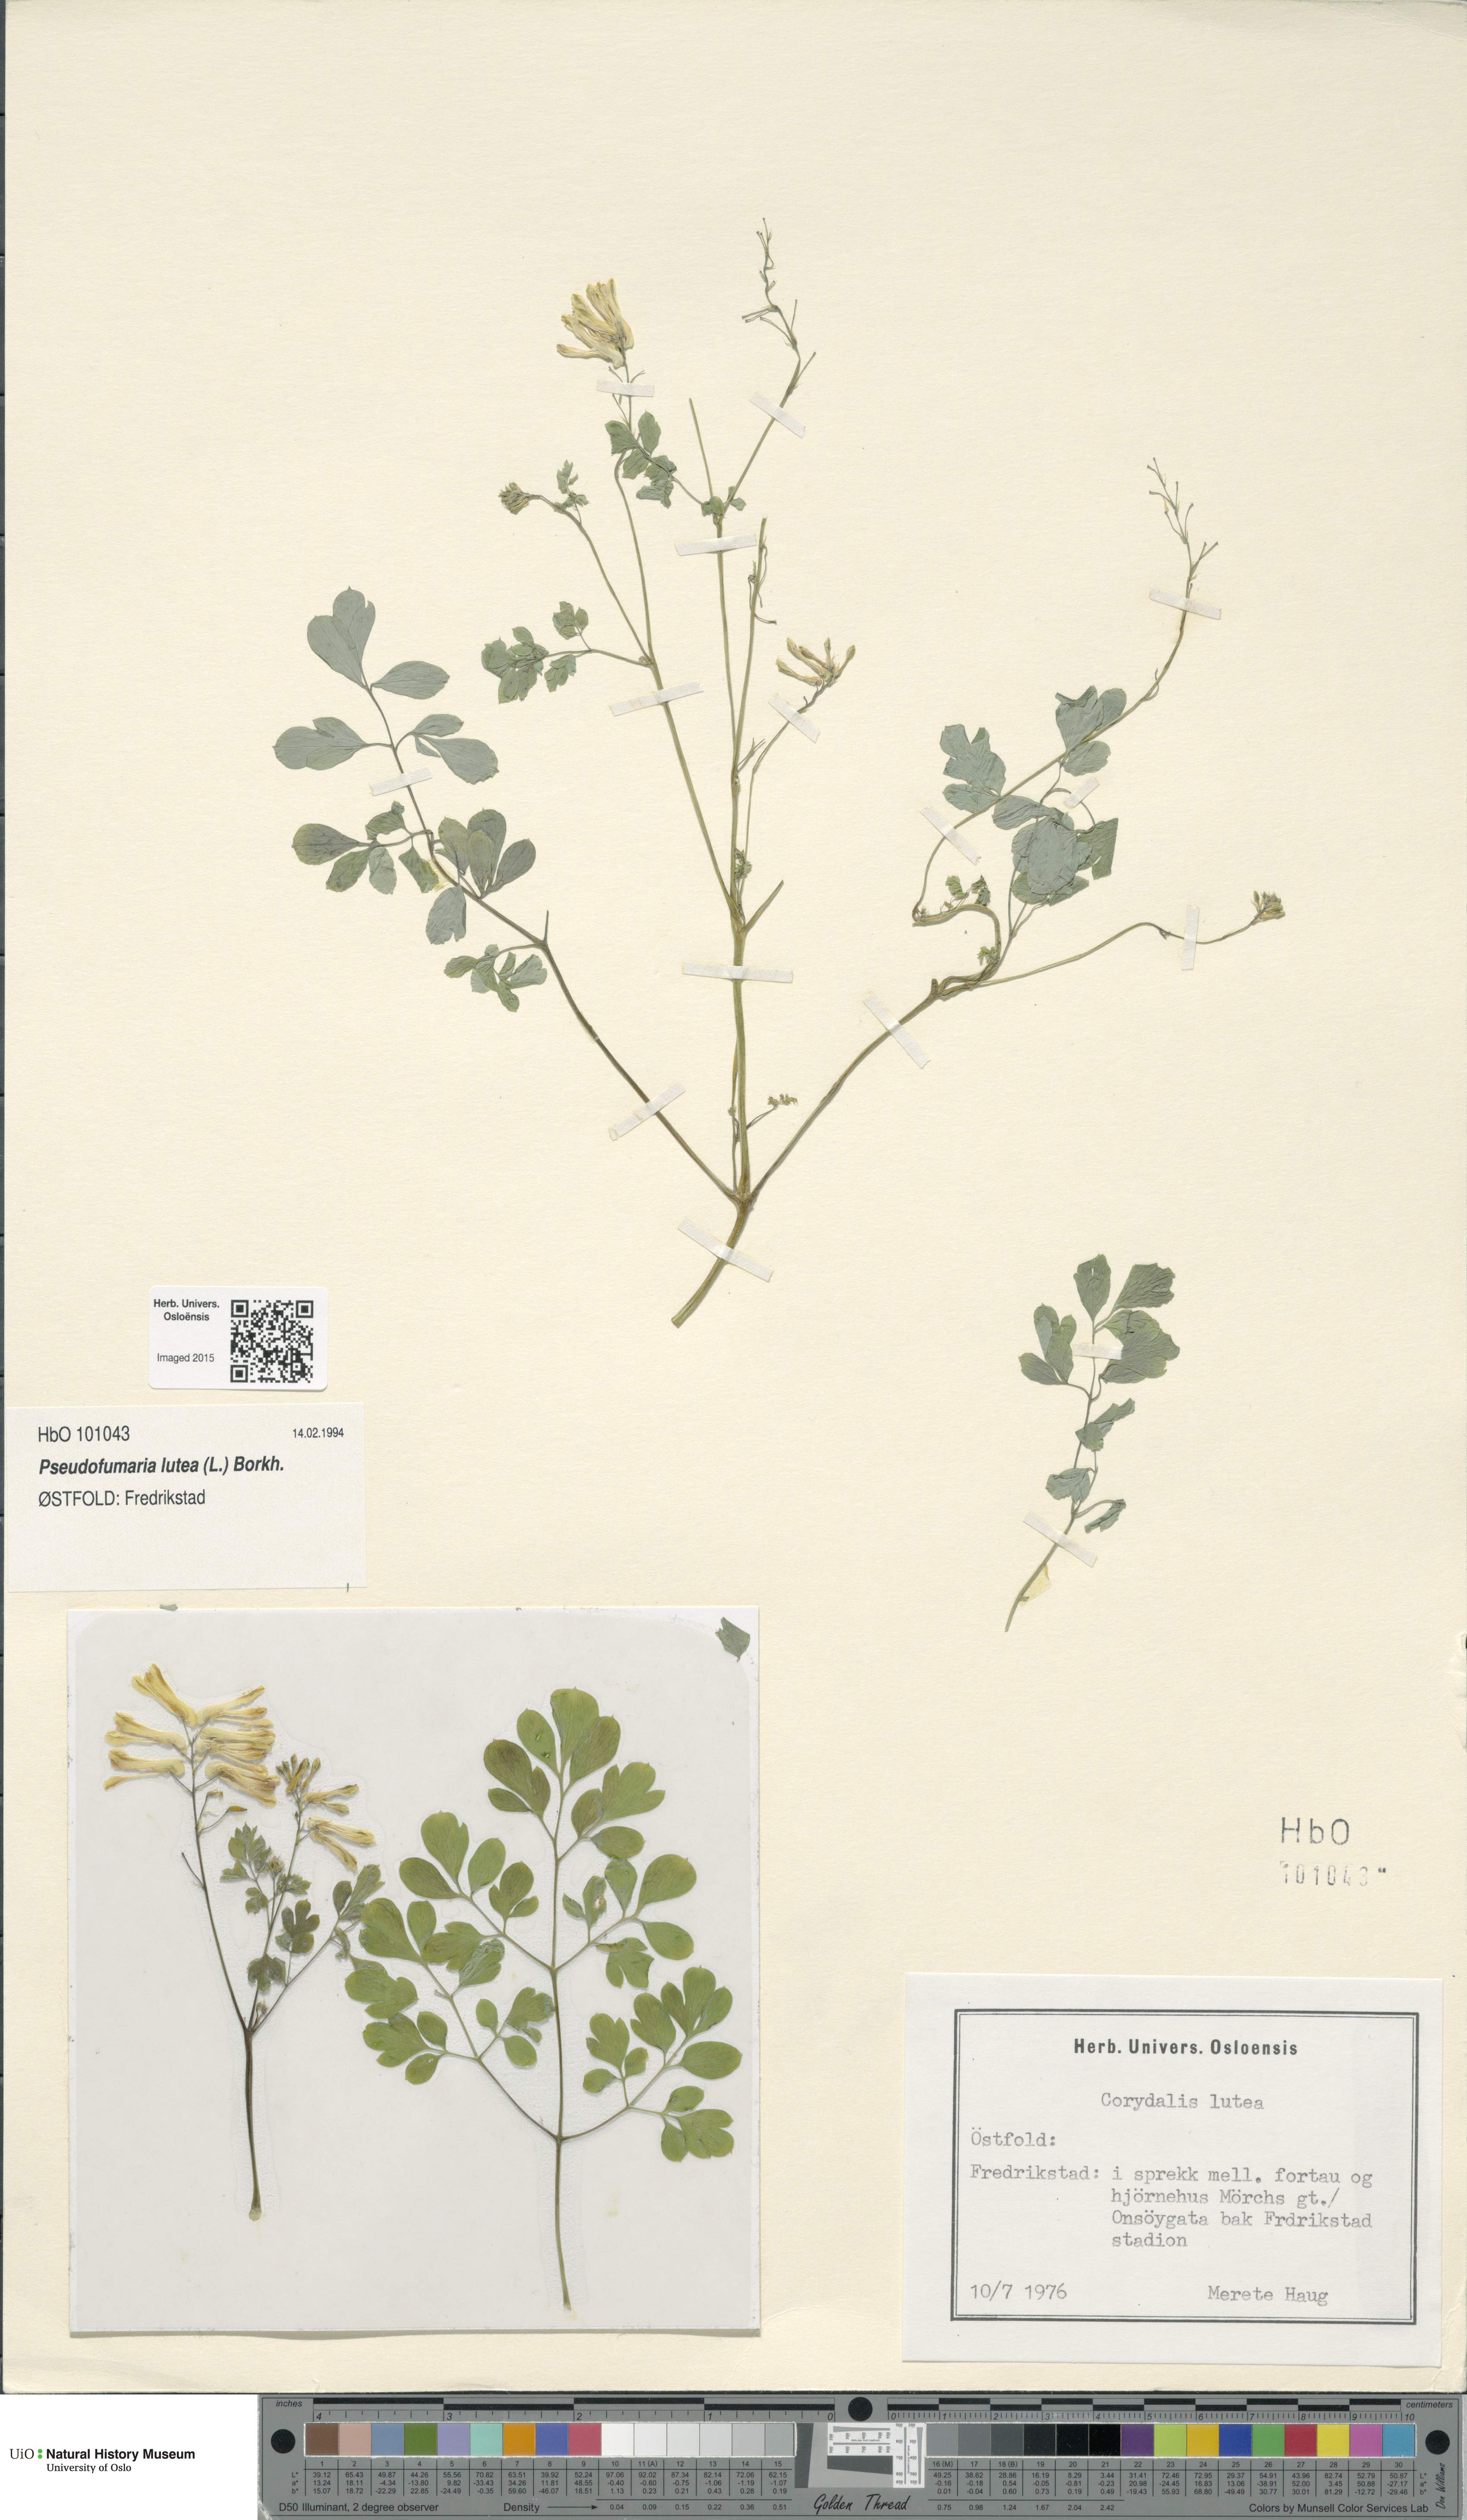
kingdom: Plantae
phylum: Tracheophyta
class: Magnoliopsida
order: Ranunculales
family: Papaveraceae
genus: Pseudofumaria
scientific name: Pseudofumaria lutea
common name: Yellow corydalis
